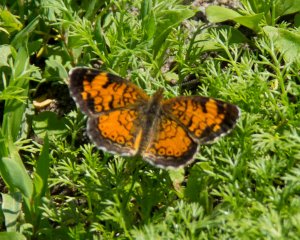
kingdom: Animalia
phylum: Arthropoda
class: Insecta
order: Lepidoptera
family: Nymphalidae
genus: Phyciodes
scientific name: Phyciodes tharos
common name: Pearl Crescent
